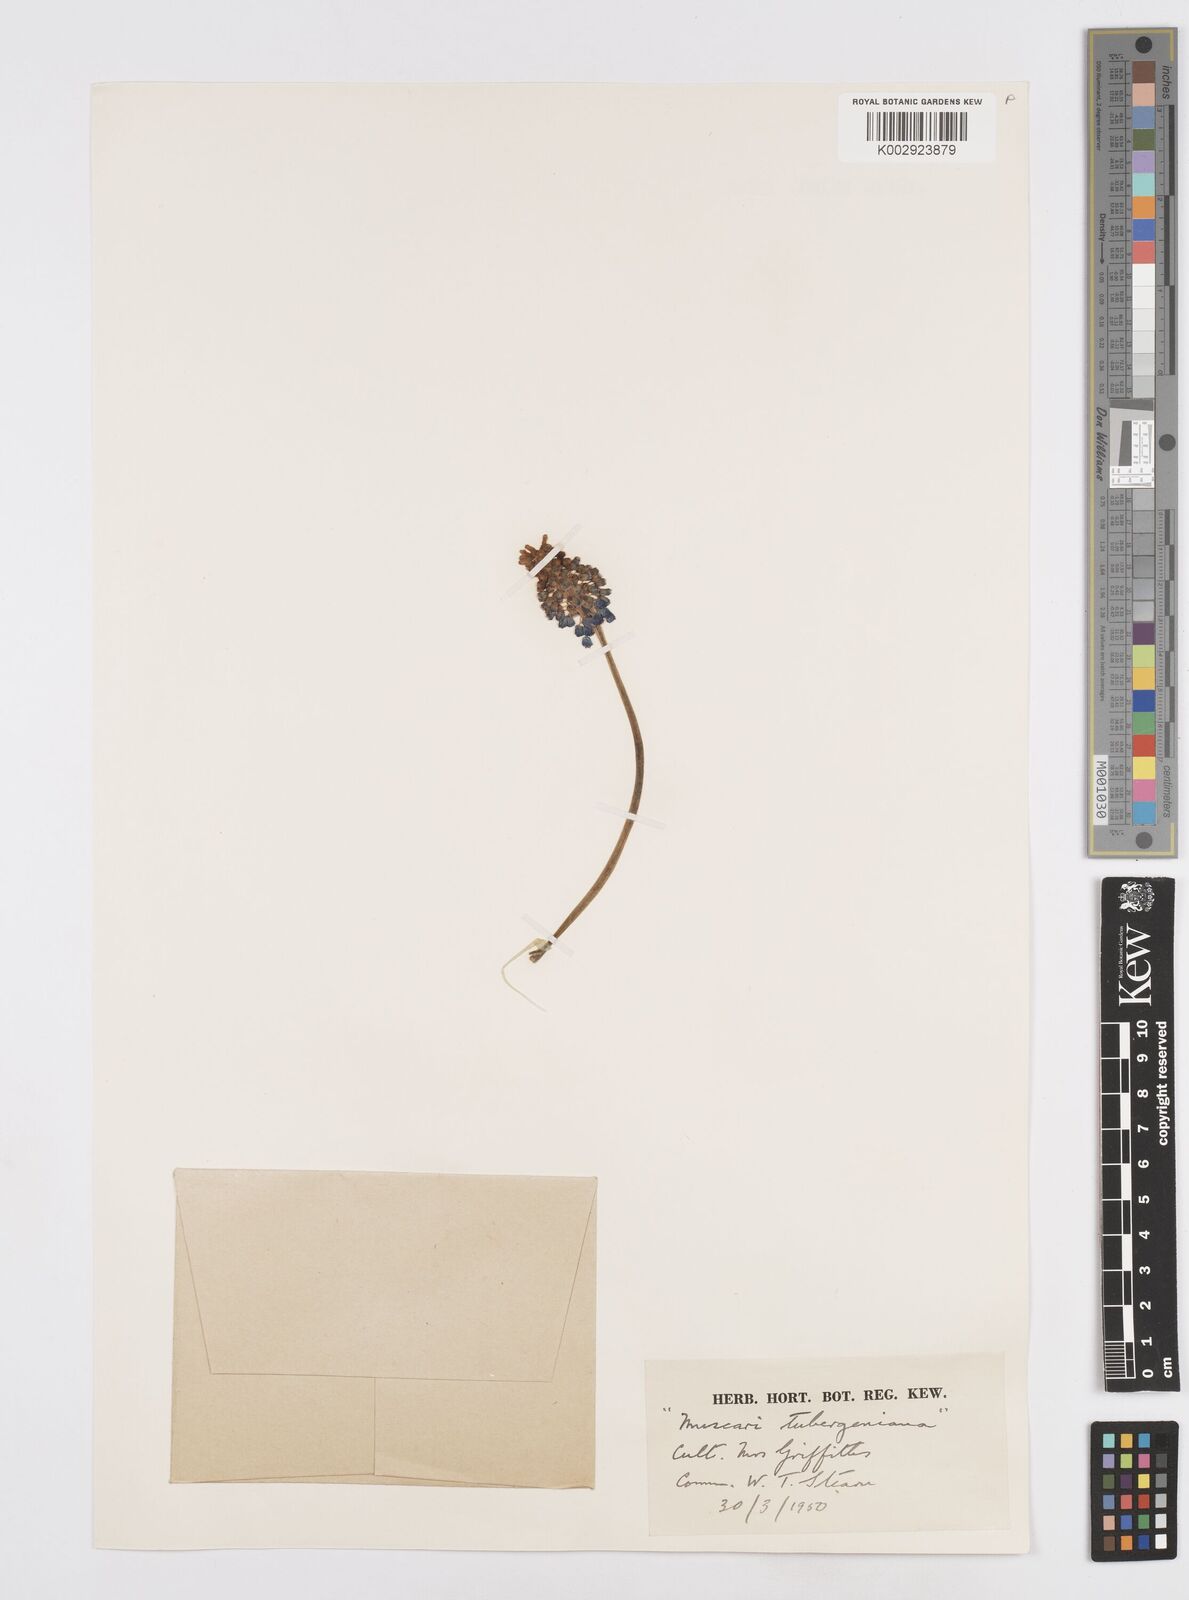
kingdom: Plantae
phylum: Tracheophyta
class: Liliopsida
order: Asparagales
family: Asparagaceae
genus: Muscari
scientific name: Muscari aucheri
